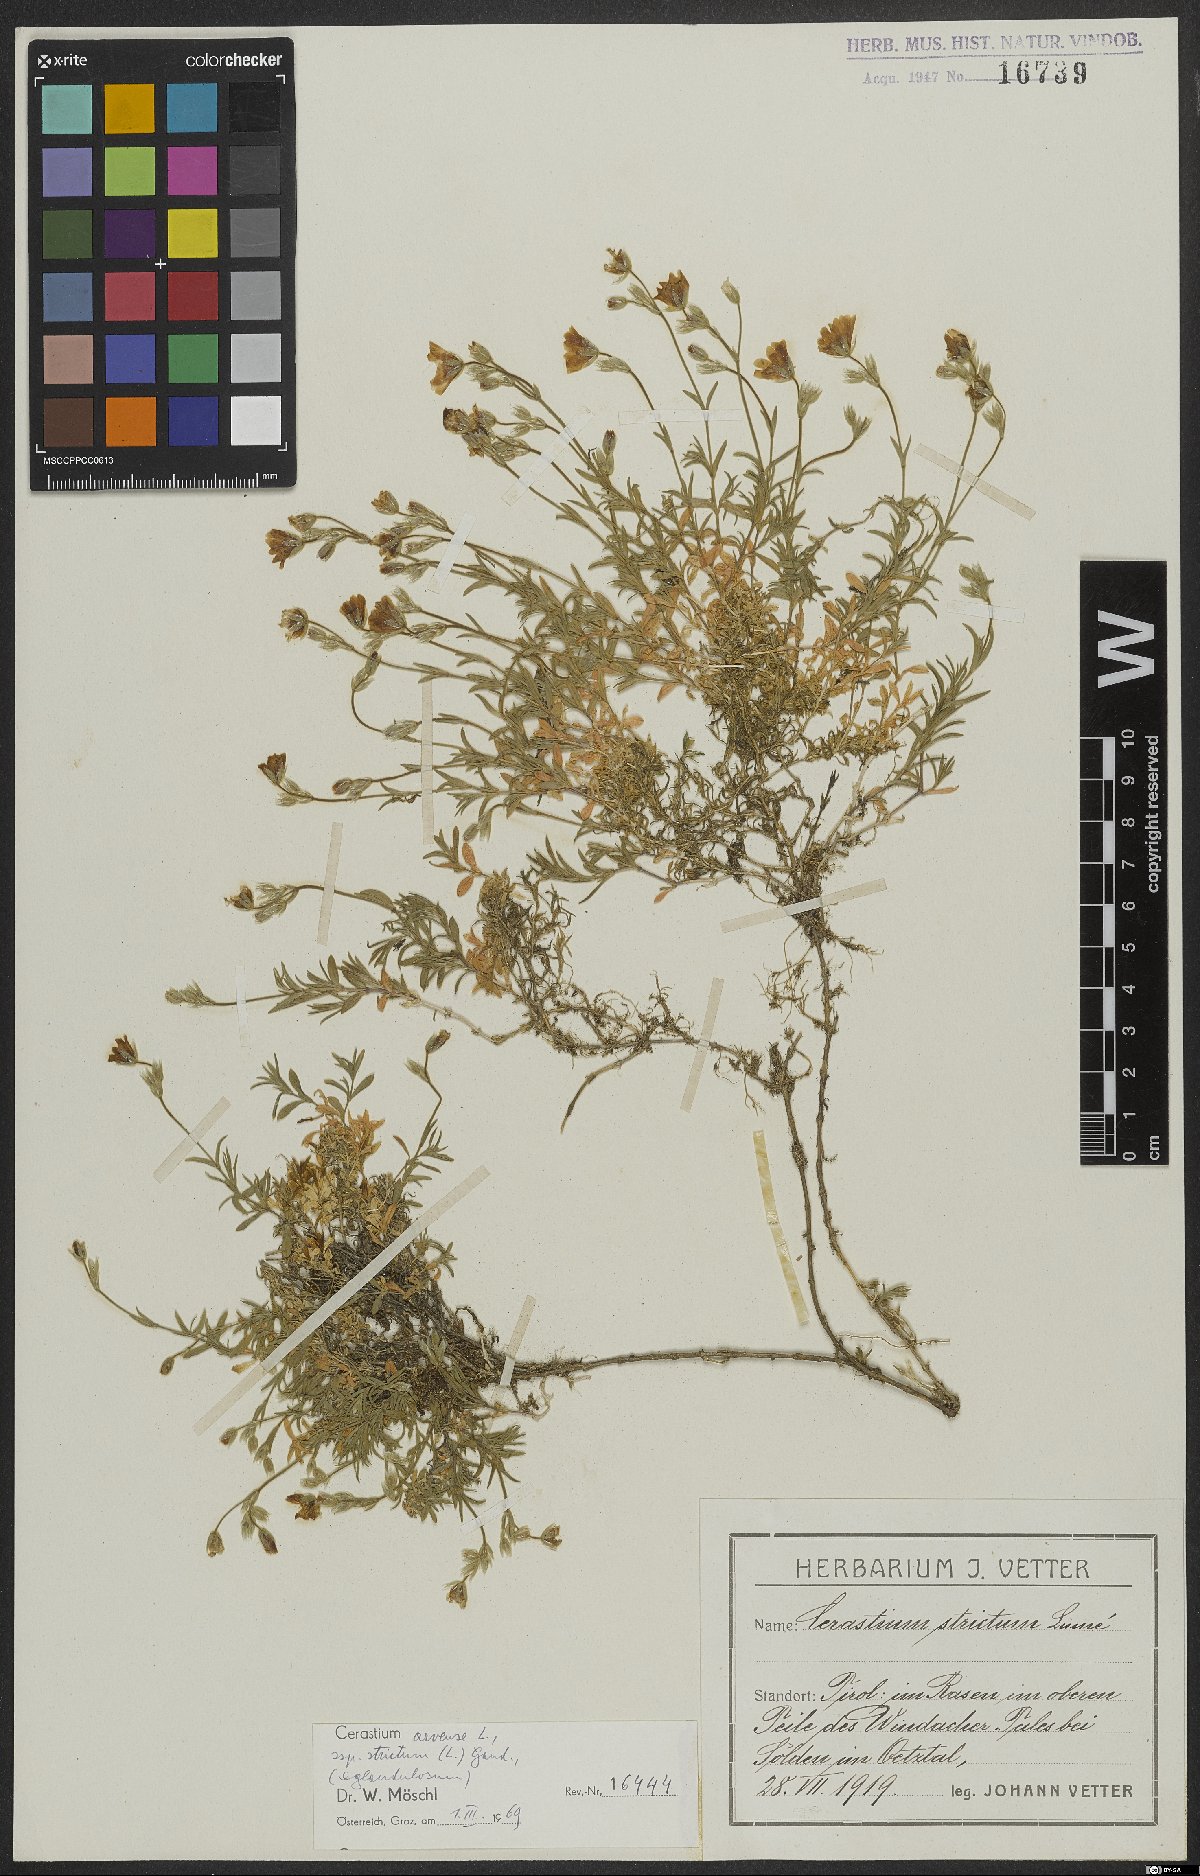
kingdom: Plantae
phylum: Tracheophyta
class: Magnoliopsida
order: Caryophyllales
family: Caryophyllaceae
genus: Cerastium
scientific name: Cerastium elongatum
